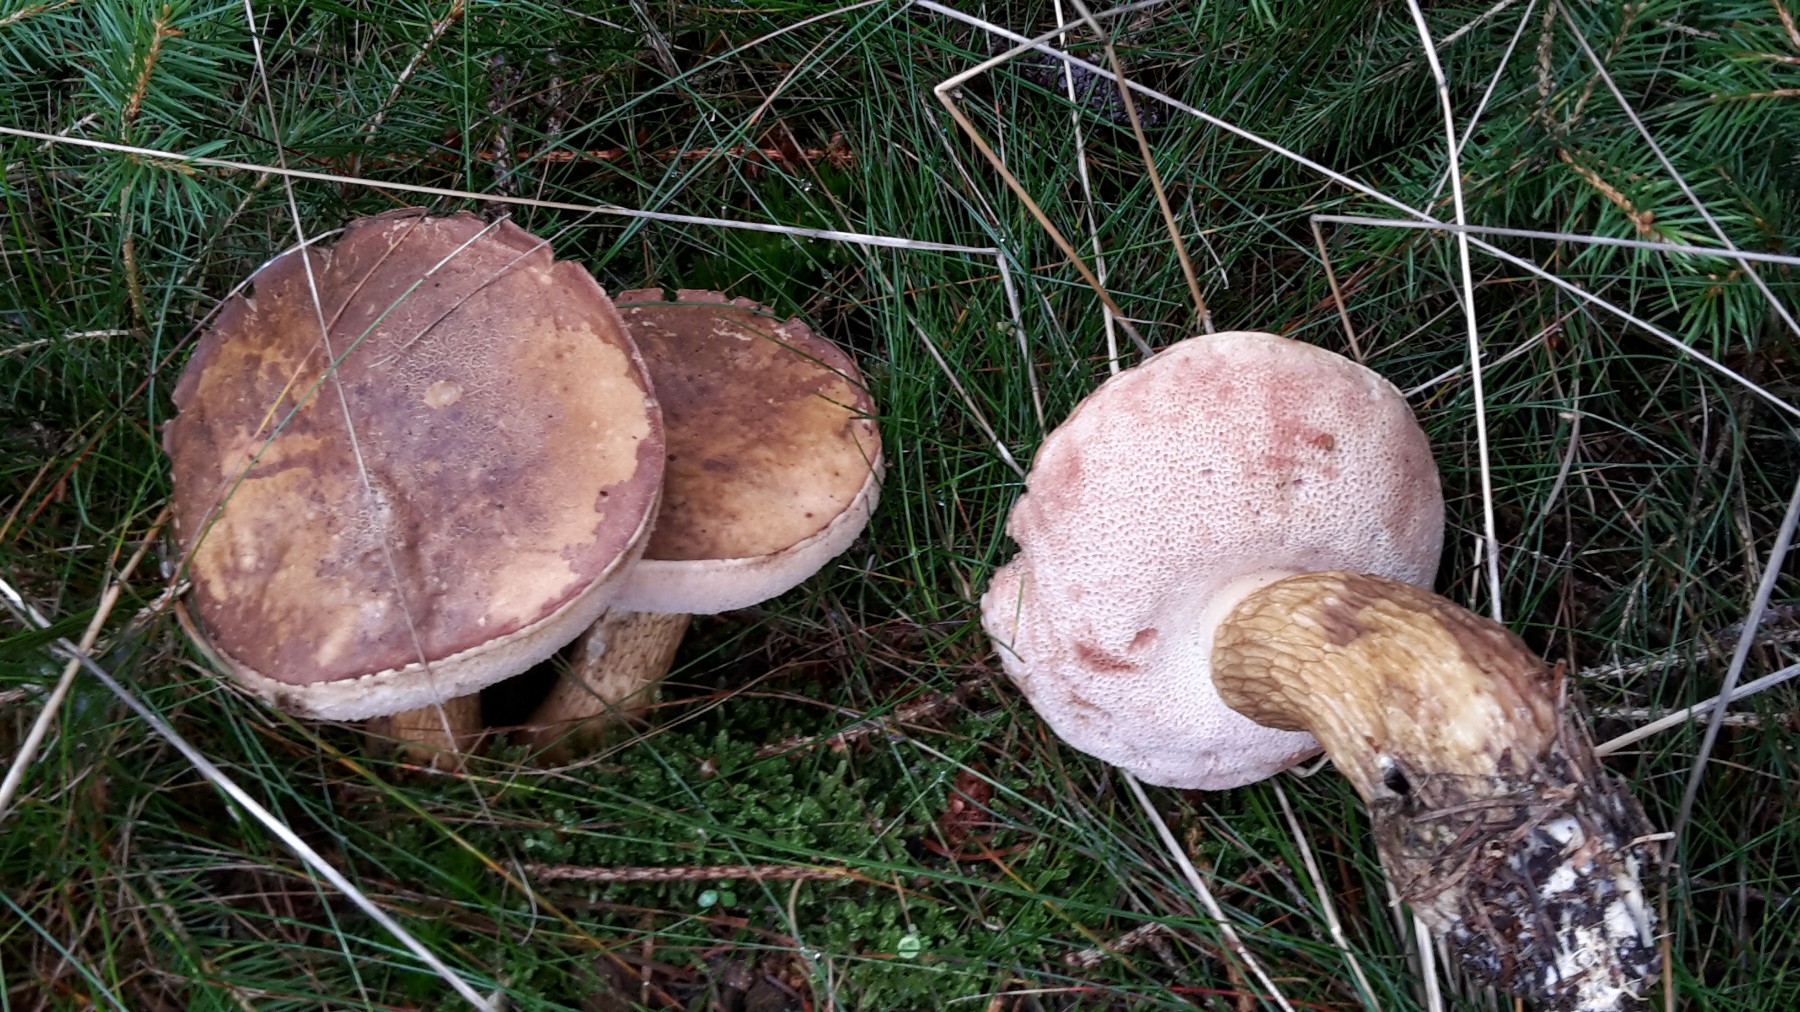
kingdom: Fungi
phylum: Basidiomycota
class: Agaricomycetes
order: Boletales
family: Boletaceae
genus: Tylopilus
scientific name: Tylopilus felleus
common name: galderørhat
